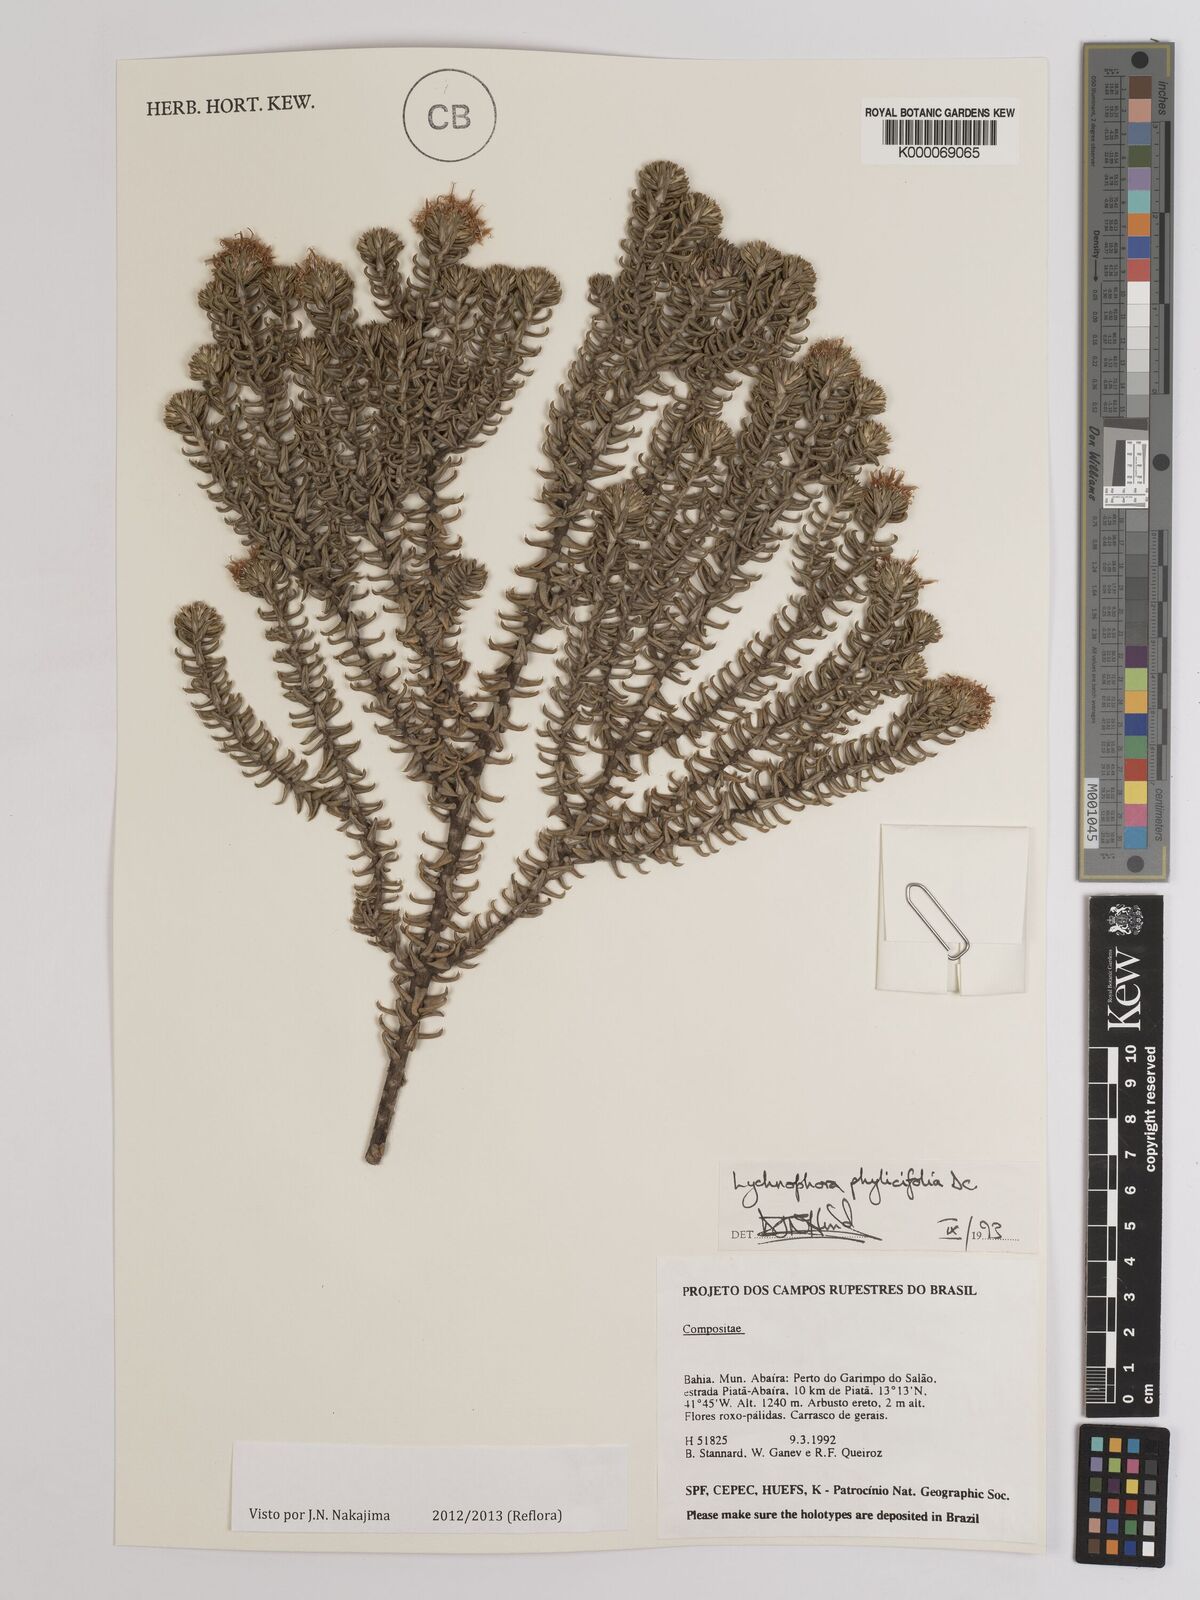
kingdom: Plantae
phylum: Tracheophyta
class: Magnoliopsida
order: Asterales
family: Asteraceae
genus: Lychnophora
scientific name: Lychnophora phylicifolia
